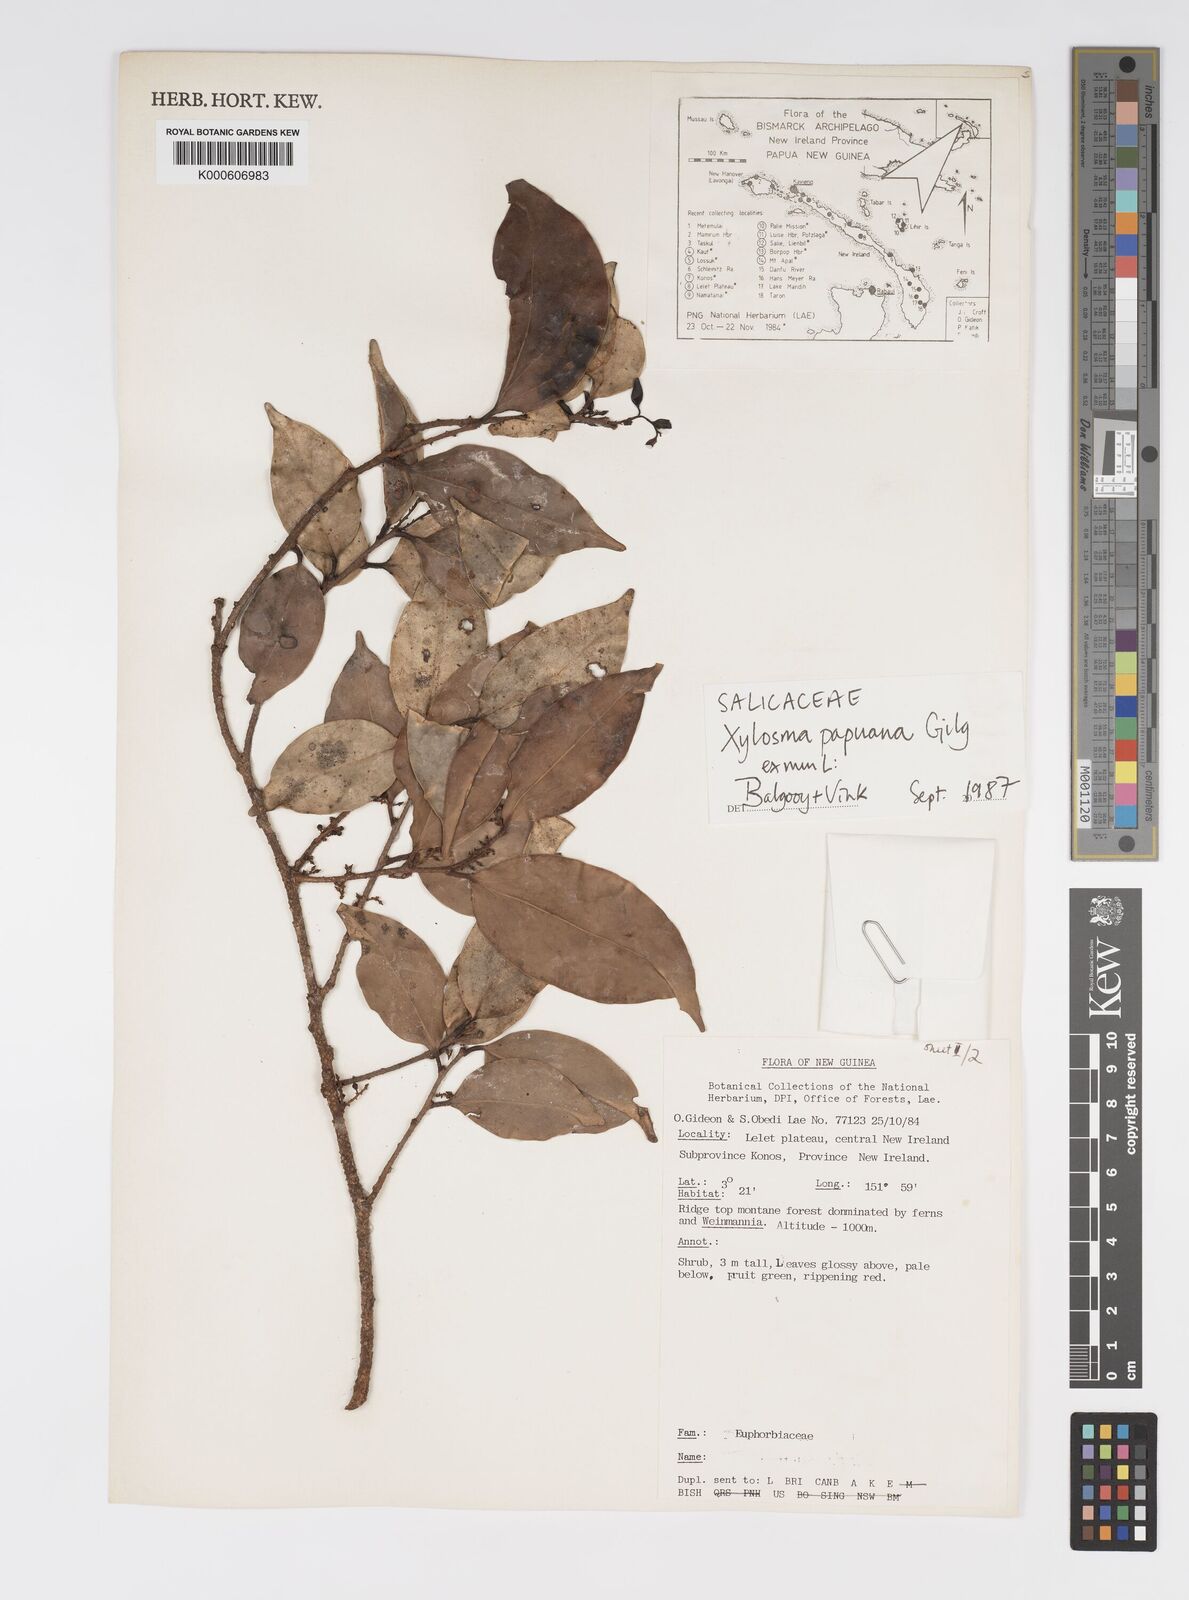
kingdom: Plantae
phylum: Tracheophyta
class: Magnoliopsida
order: Malpighiales
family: Salicaceae
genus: Xylosma
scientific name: Xylosma papuana
